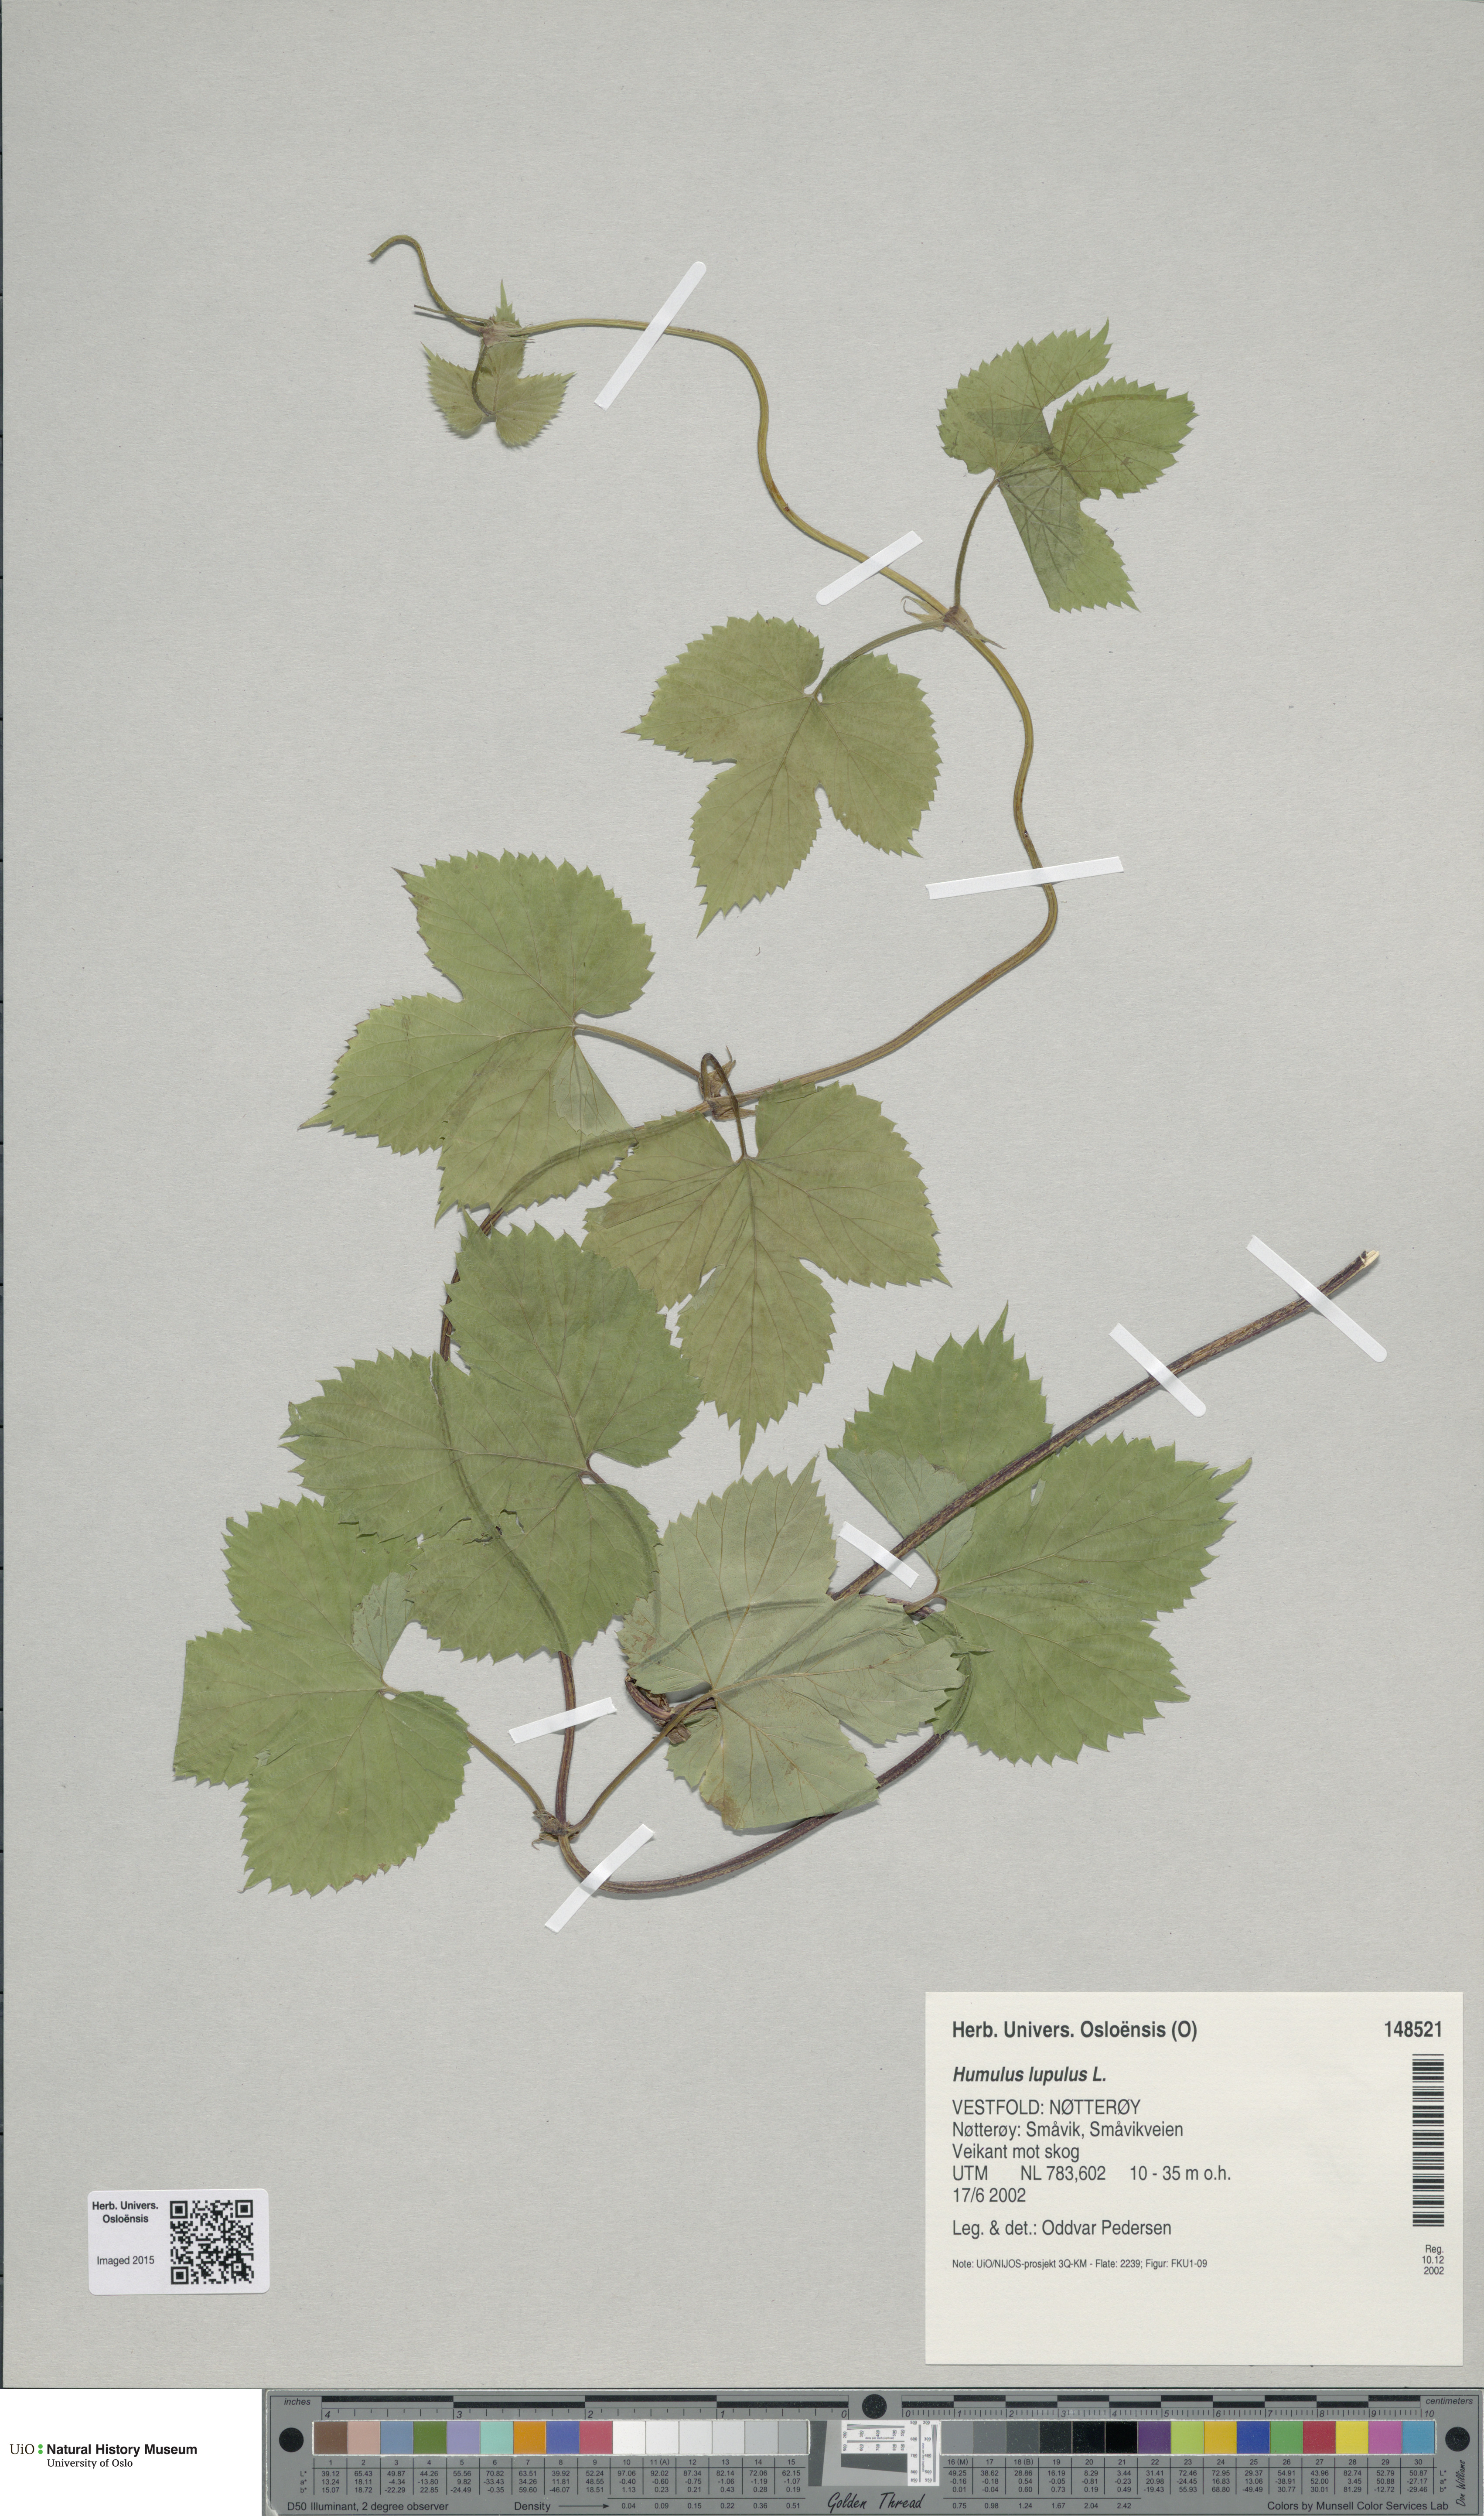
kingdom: Plantae
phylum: Tracheophyta
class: Magnoliopsida
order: Rosales
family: Cannabaceae
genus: Humulus
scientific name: Humulus lupulus
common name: Hop
